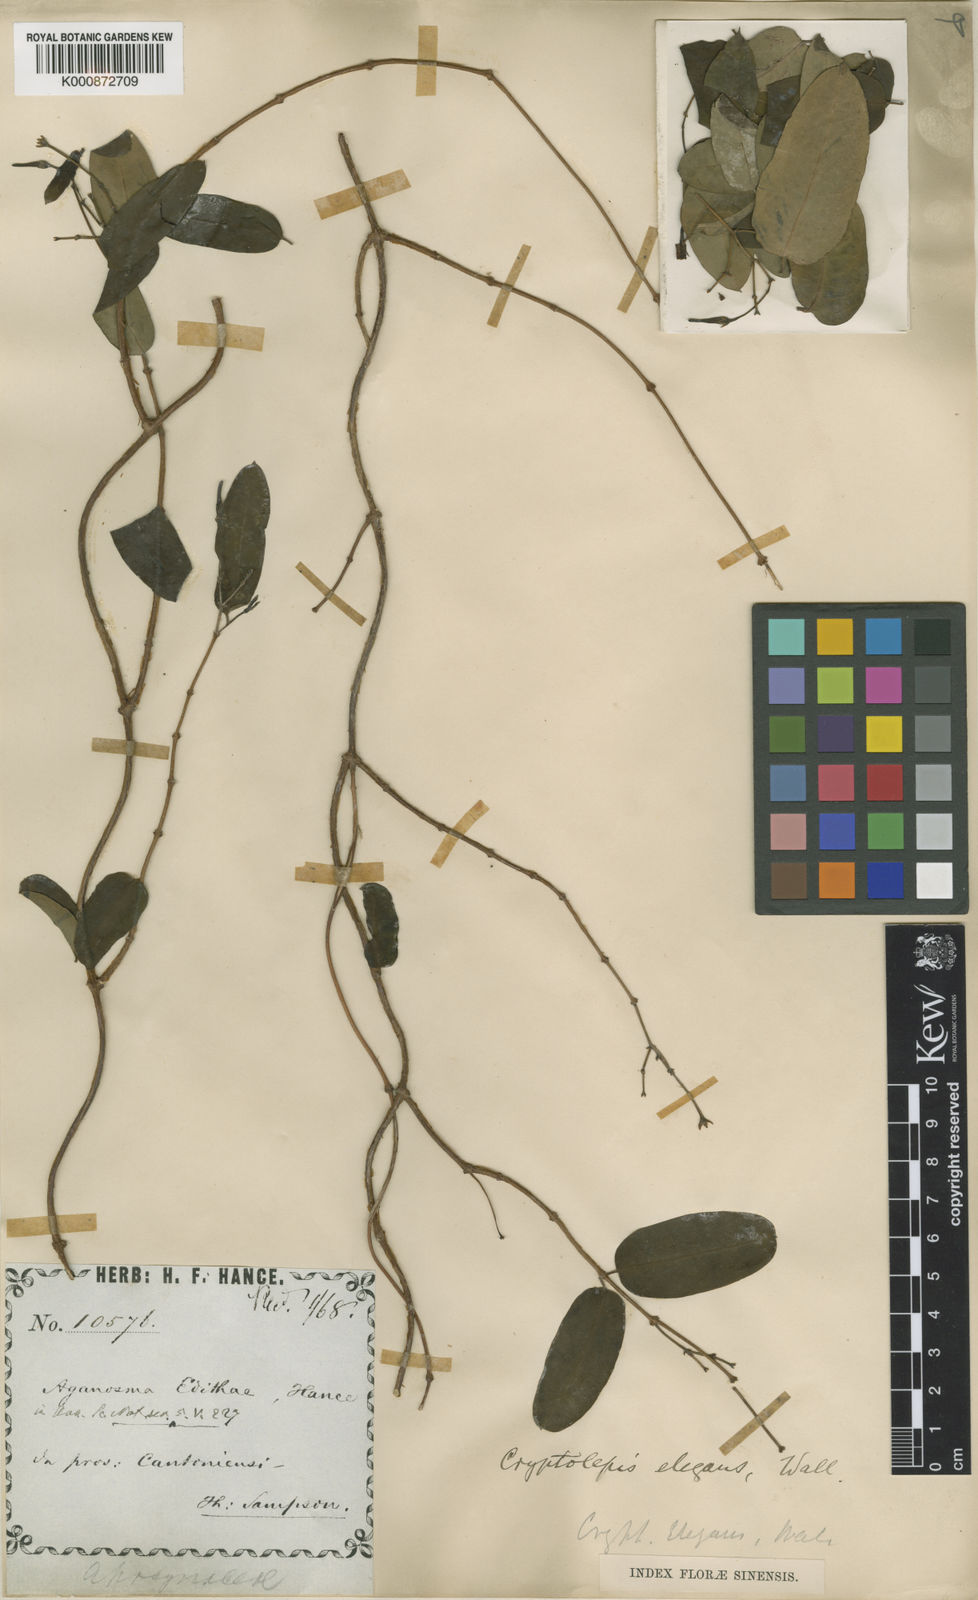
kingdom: Plantae
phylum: Tracheophyta
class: Magnoliopsida
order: Gentianales
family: Apocynaceae
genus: Cryptolepis
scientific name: Cryptolepis sinensis
